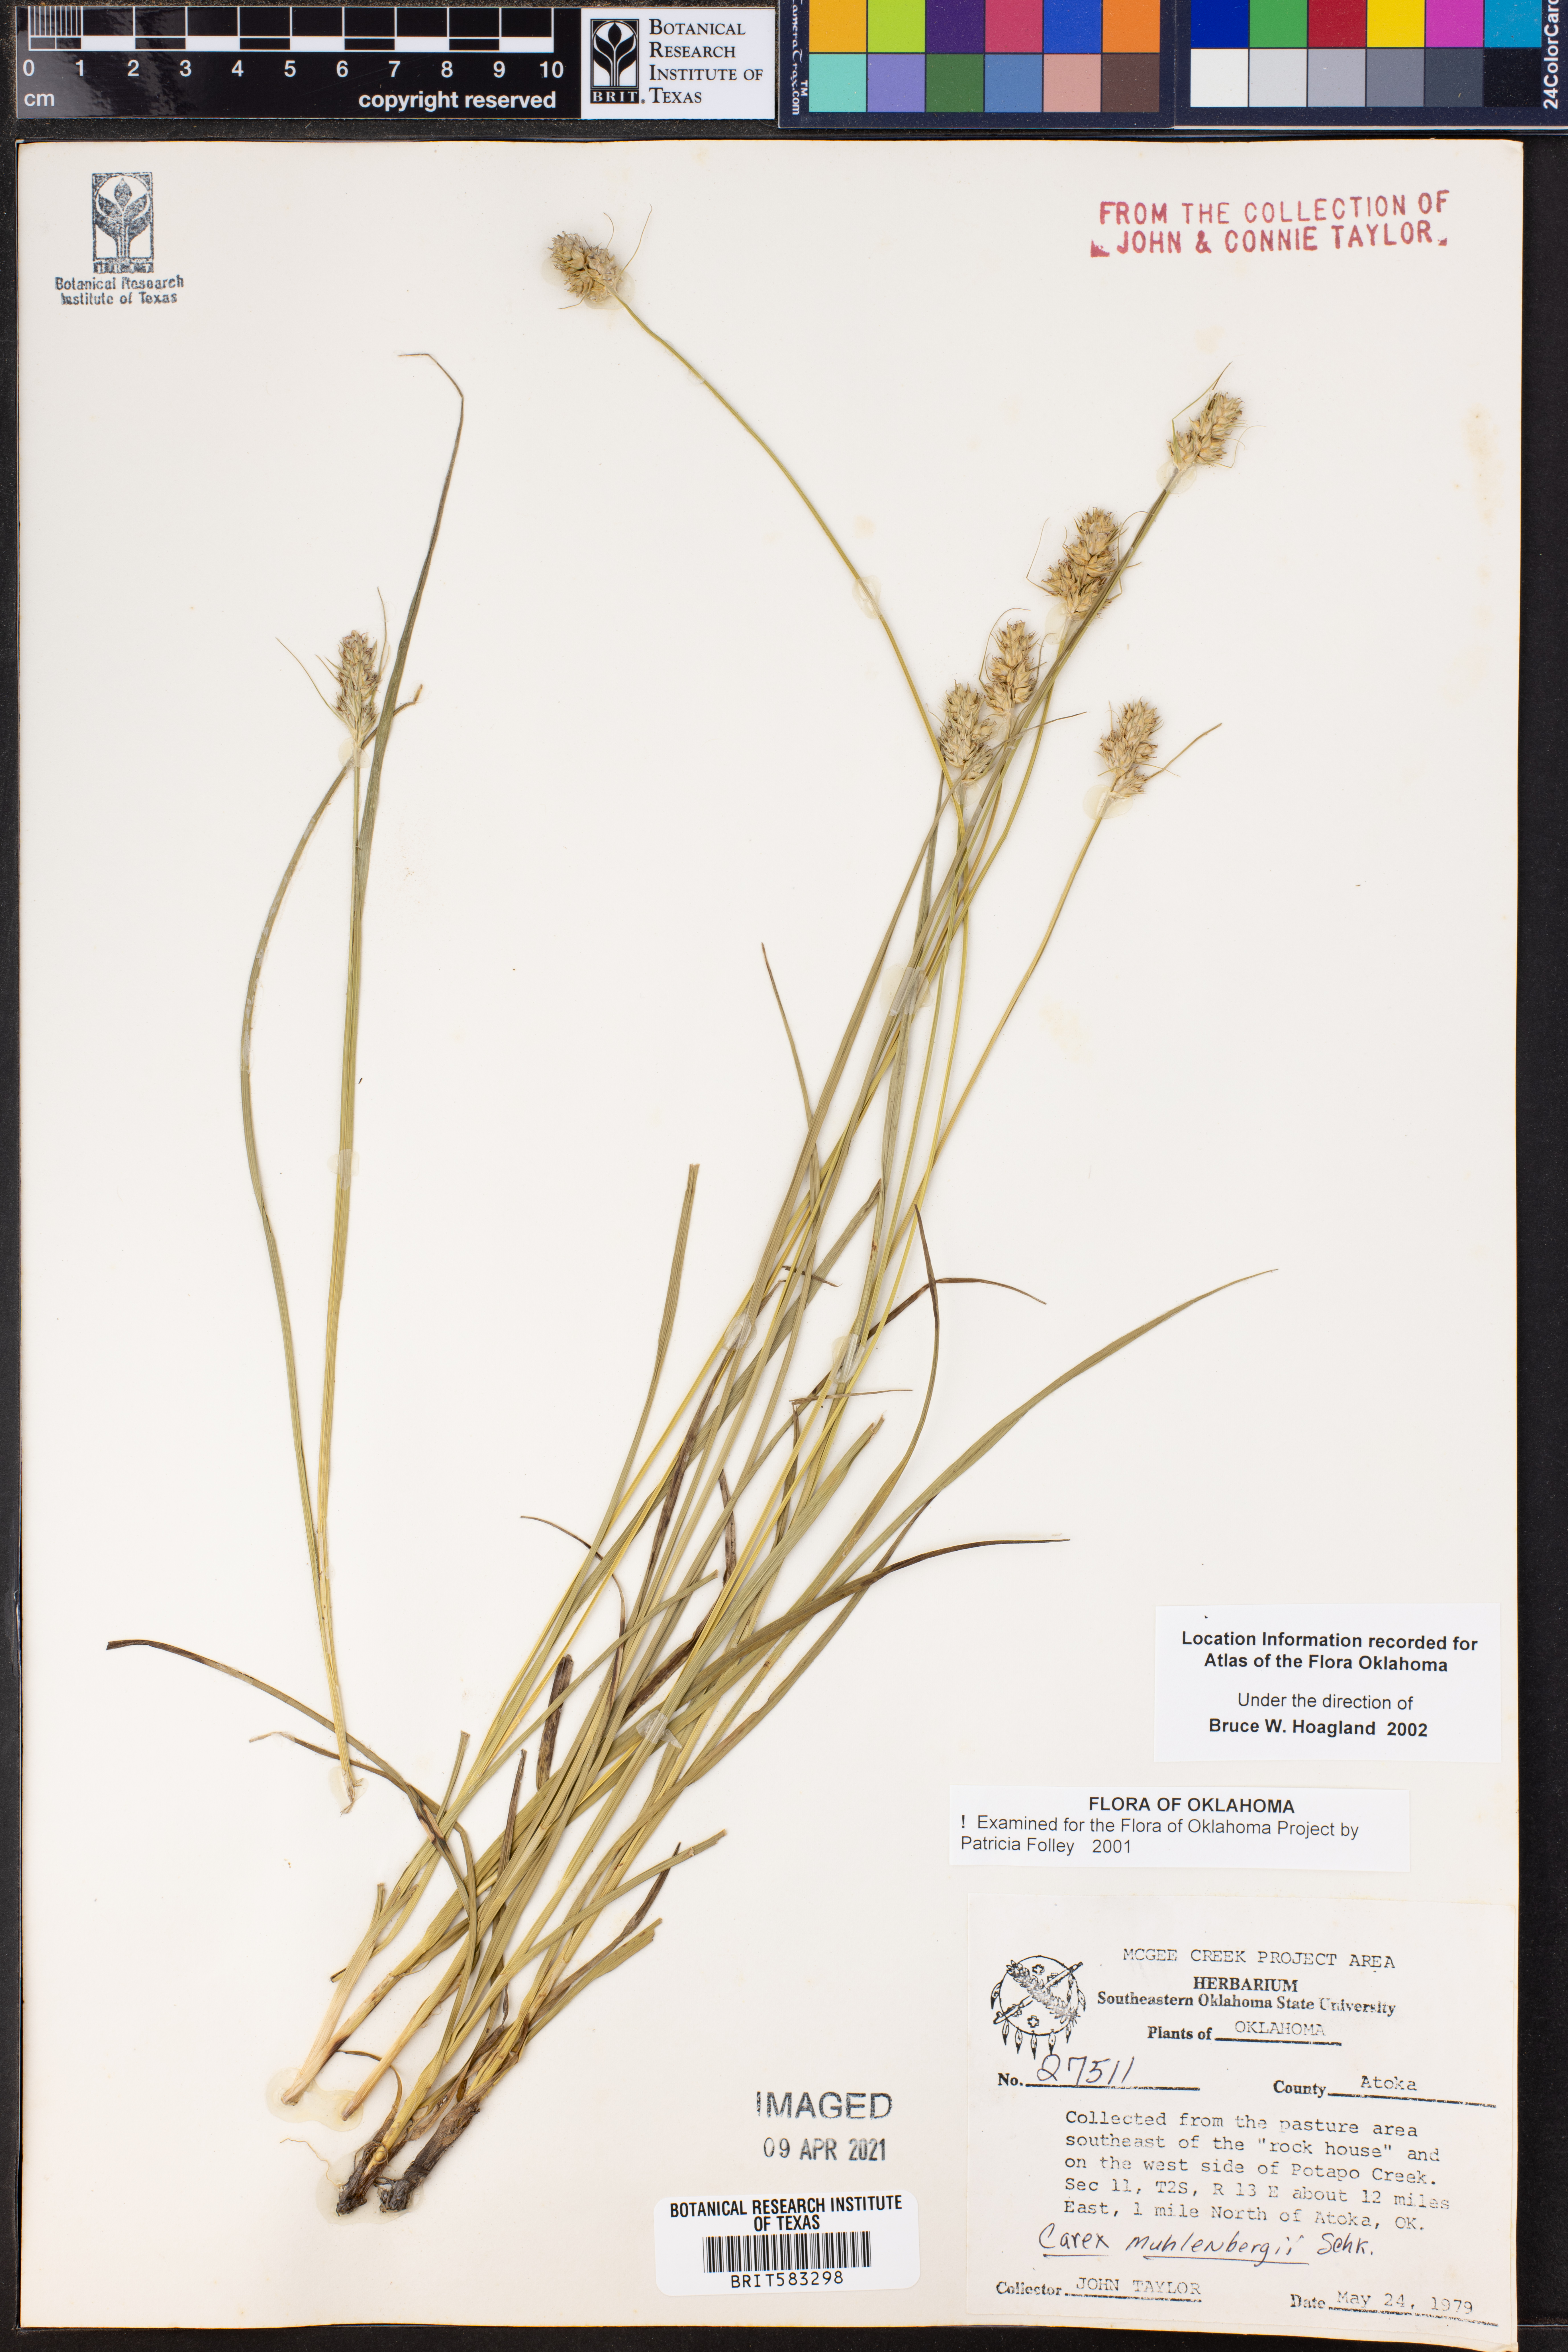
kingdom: Plantae
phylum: Tracheophyta
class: Liliopsida
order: Poales
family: Cyperaceae
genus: Carex
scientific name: Carex vulpinoidea
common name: American fox-sedge
